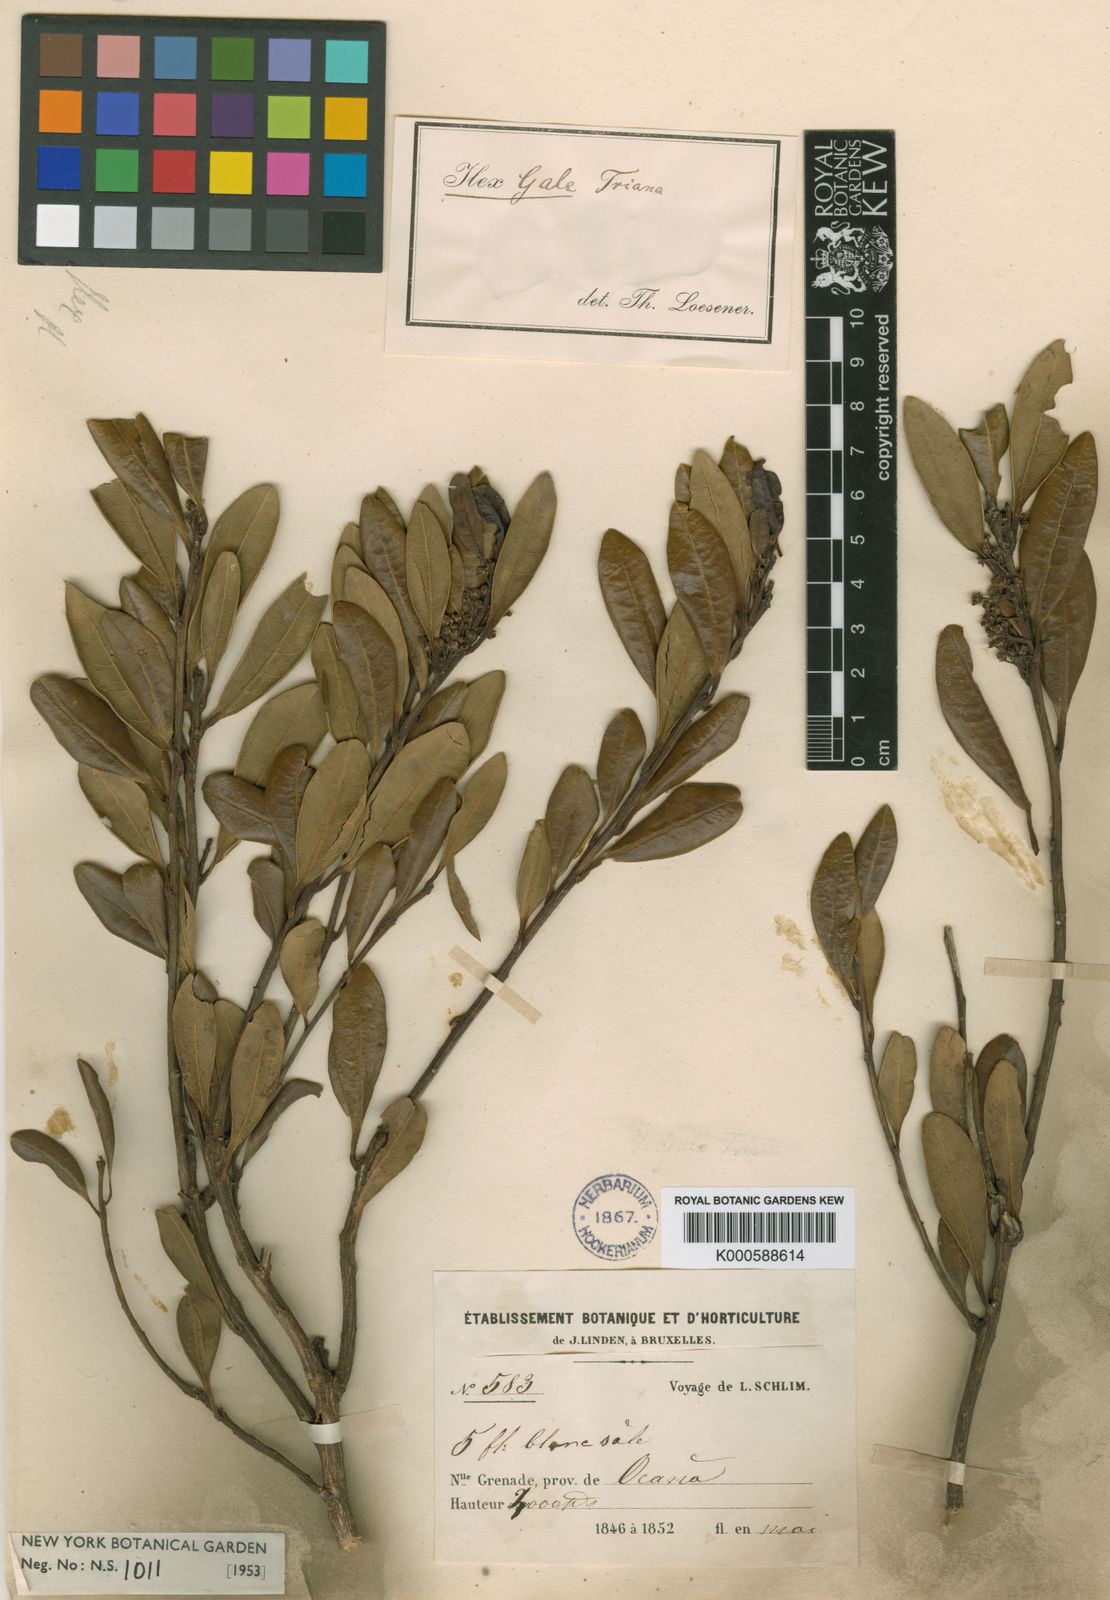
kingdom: Plantae
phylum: Tracheophyta
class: Magnoliopsida
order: Aquifoliales
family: Aquifoliaceae
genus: Ilex
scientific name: Ilex gale
